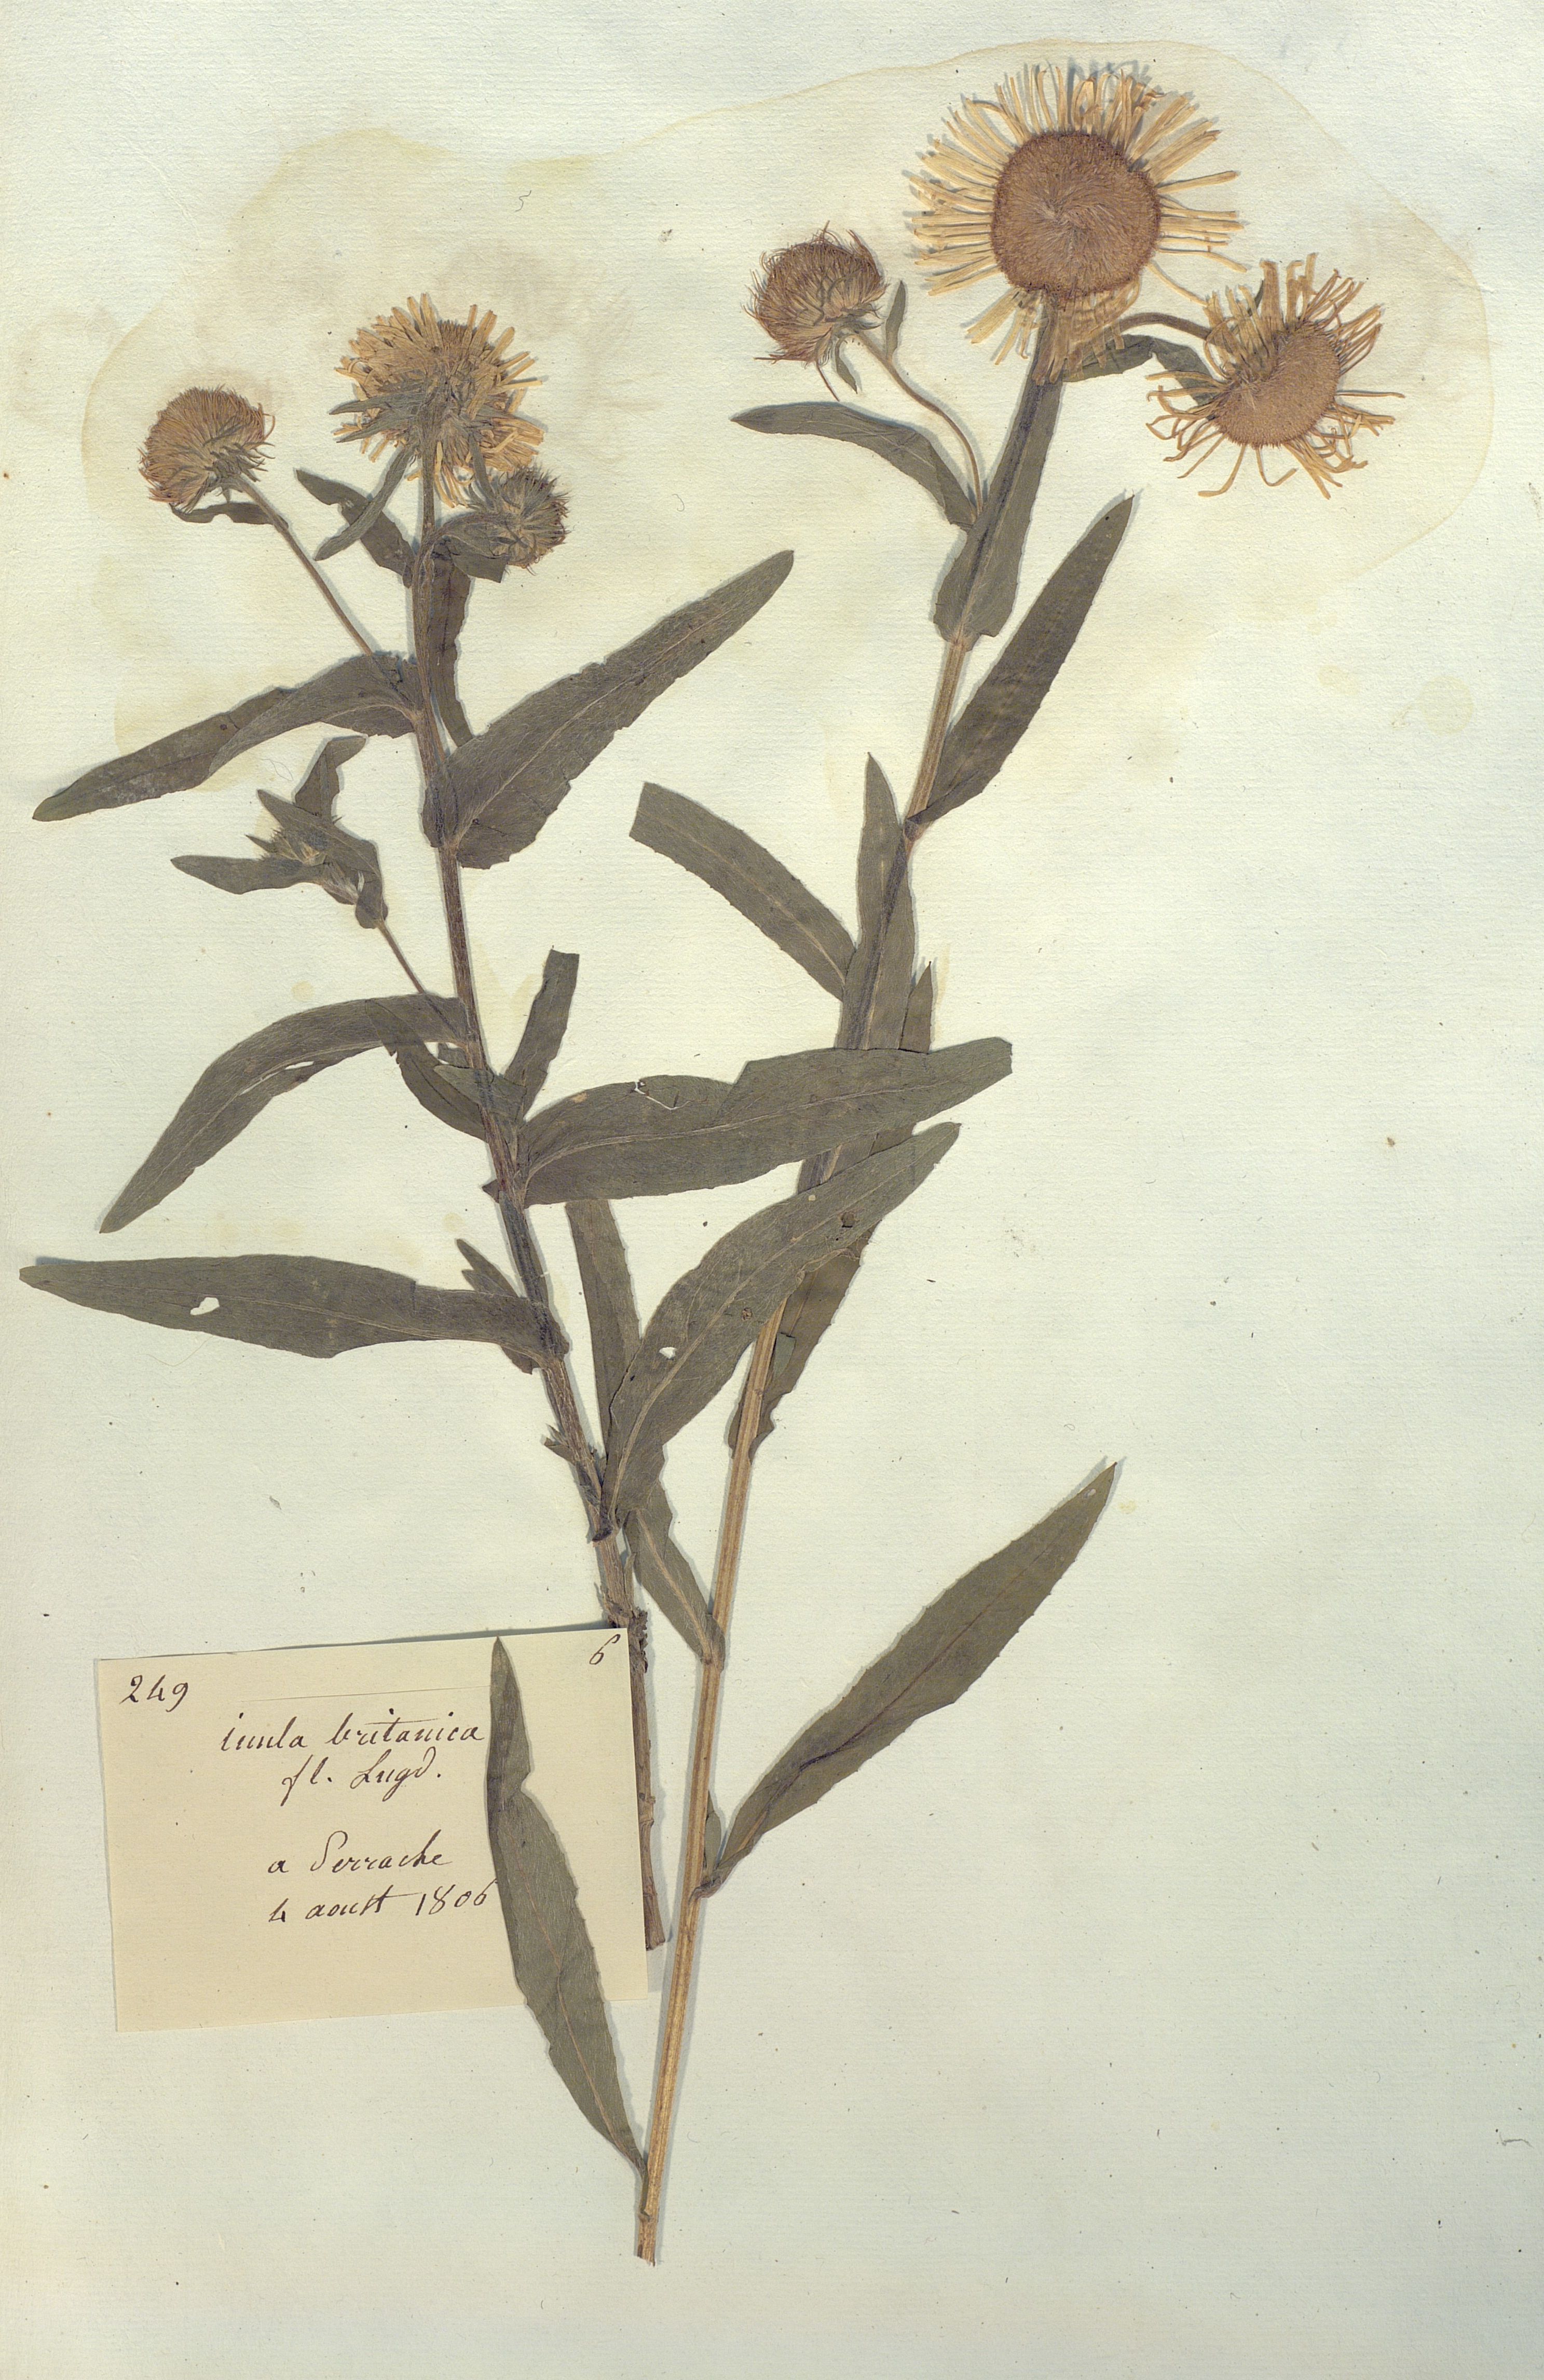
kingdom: Plantae
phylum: Tracheophyta
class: Magnoliopsida
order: Asterales
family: Asteraceae
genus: Inula
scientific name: Inula britannica
